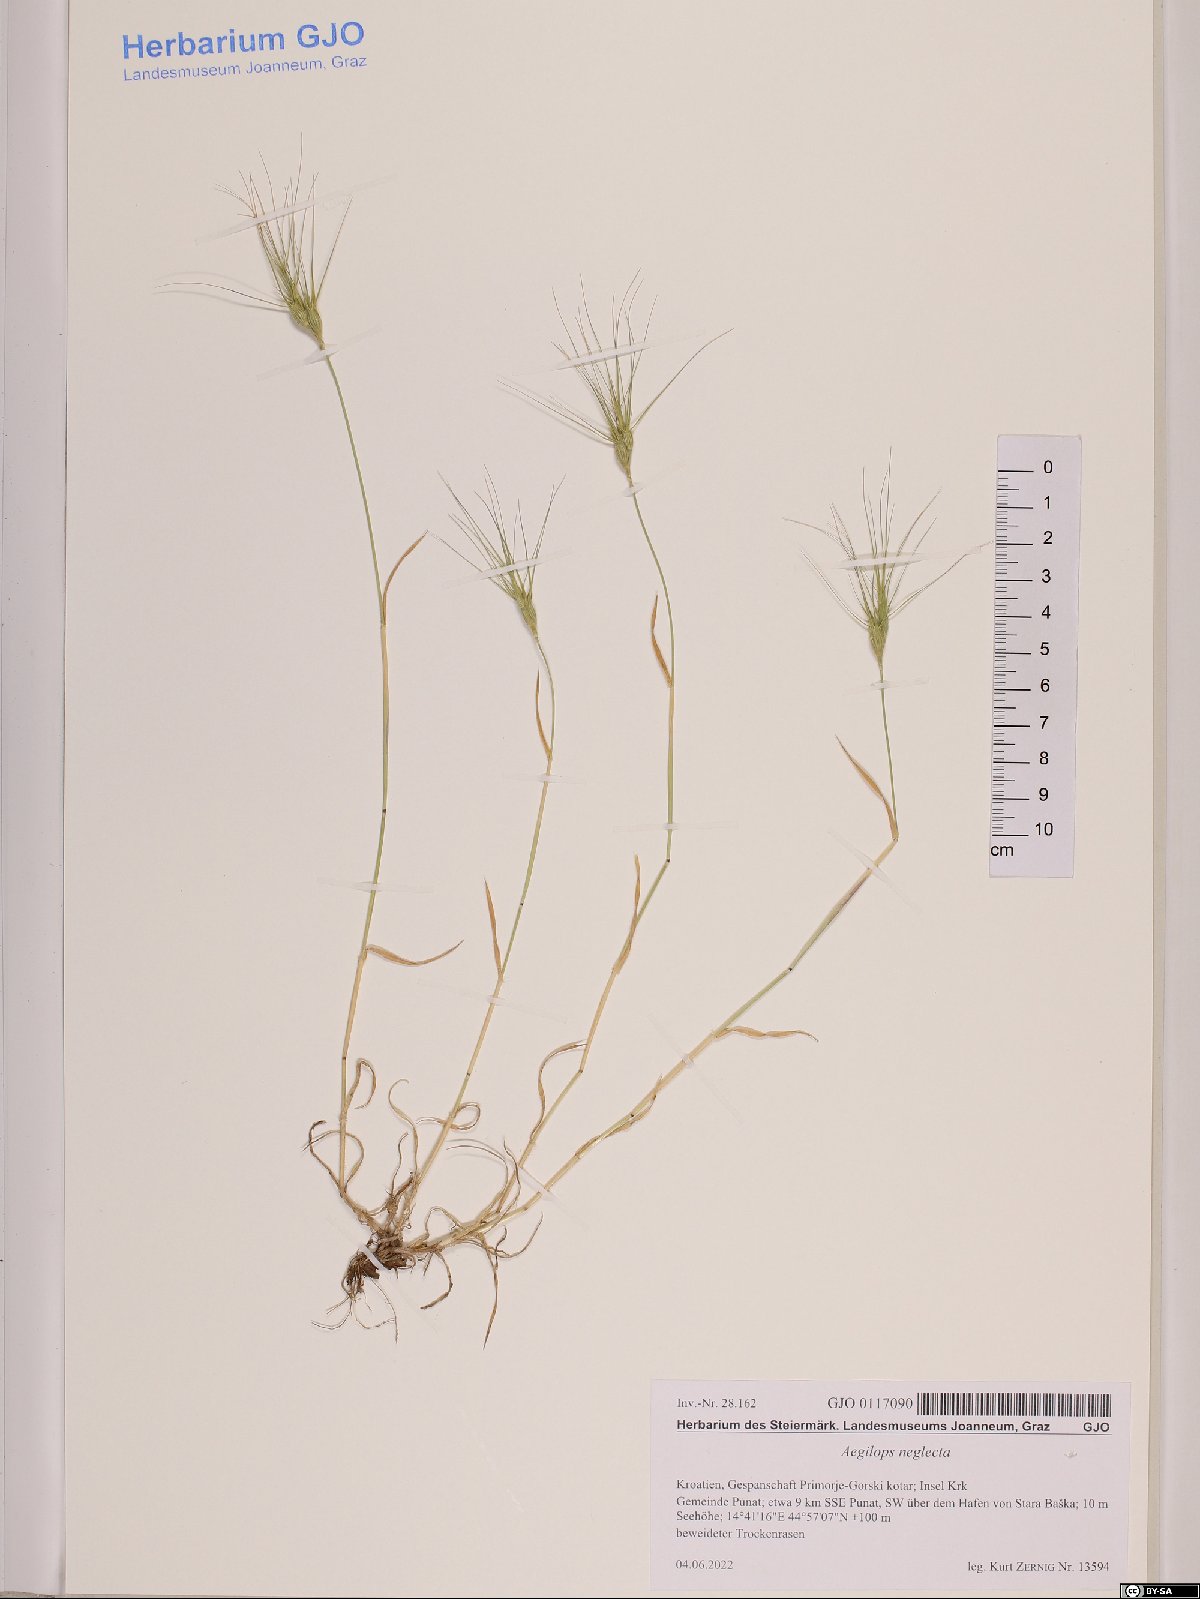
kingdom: Plantae
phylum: Tracheophyta
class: Liliopsida
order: Poales
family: Poaceae
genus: Aegilops
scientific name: Aegilops neglecta
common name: Three-awn goat grass
